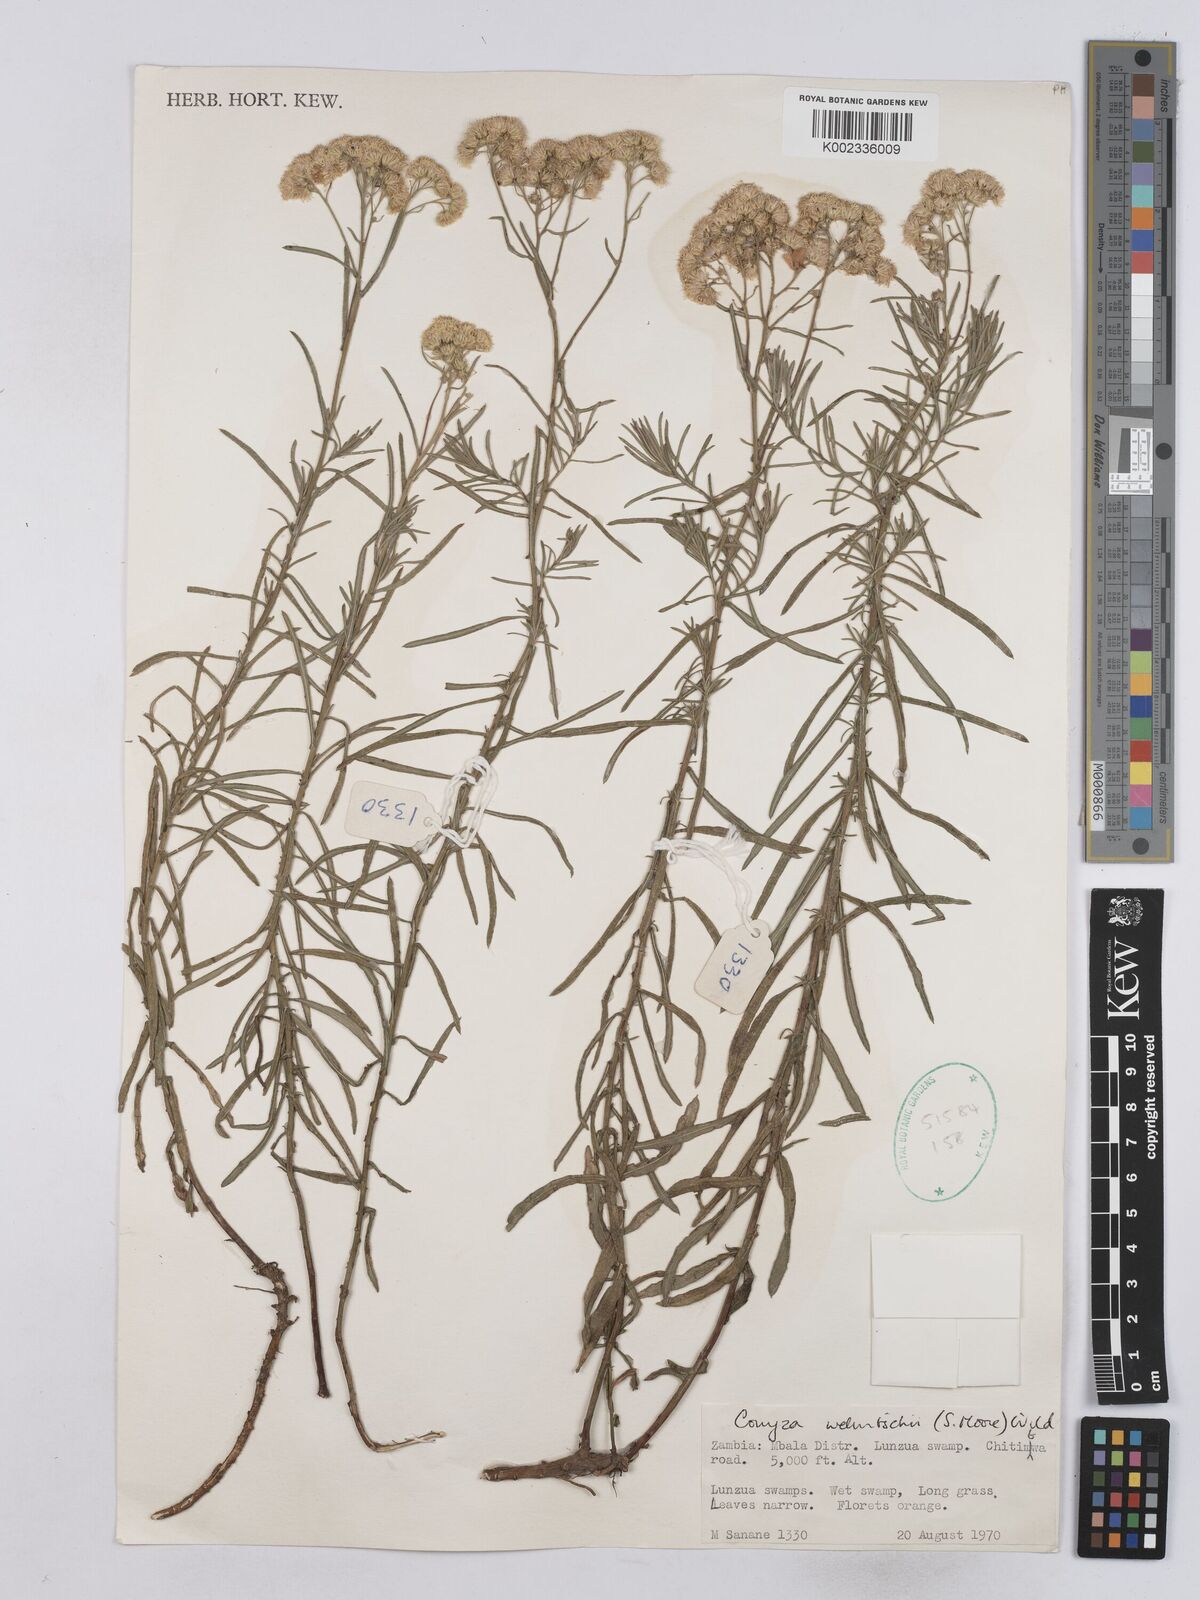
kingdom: Plantae
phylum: Tracheophyta
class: Magnoliopsida
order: Asterales
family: Asteraceae
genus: Nidorella
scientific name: Nidorella welwitschii
